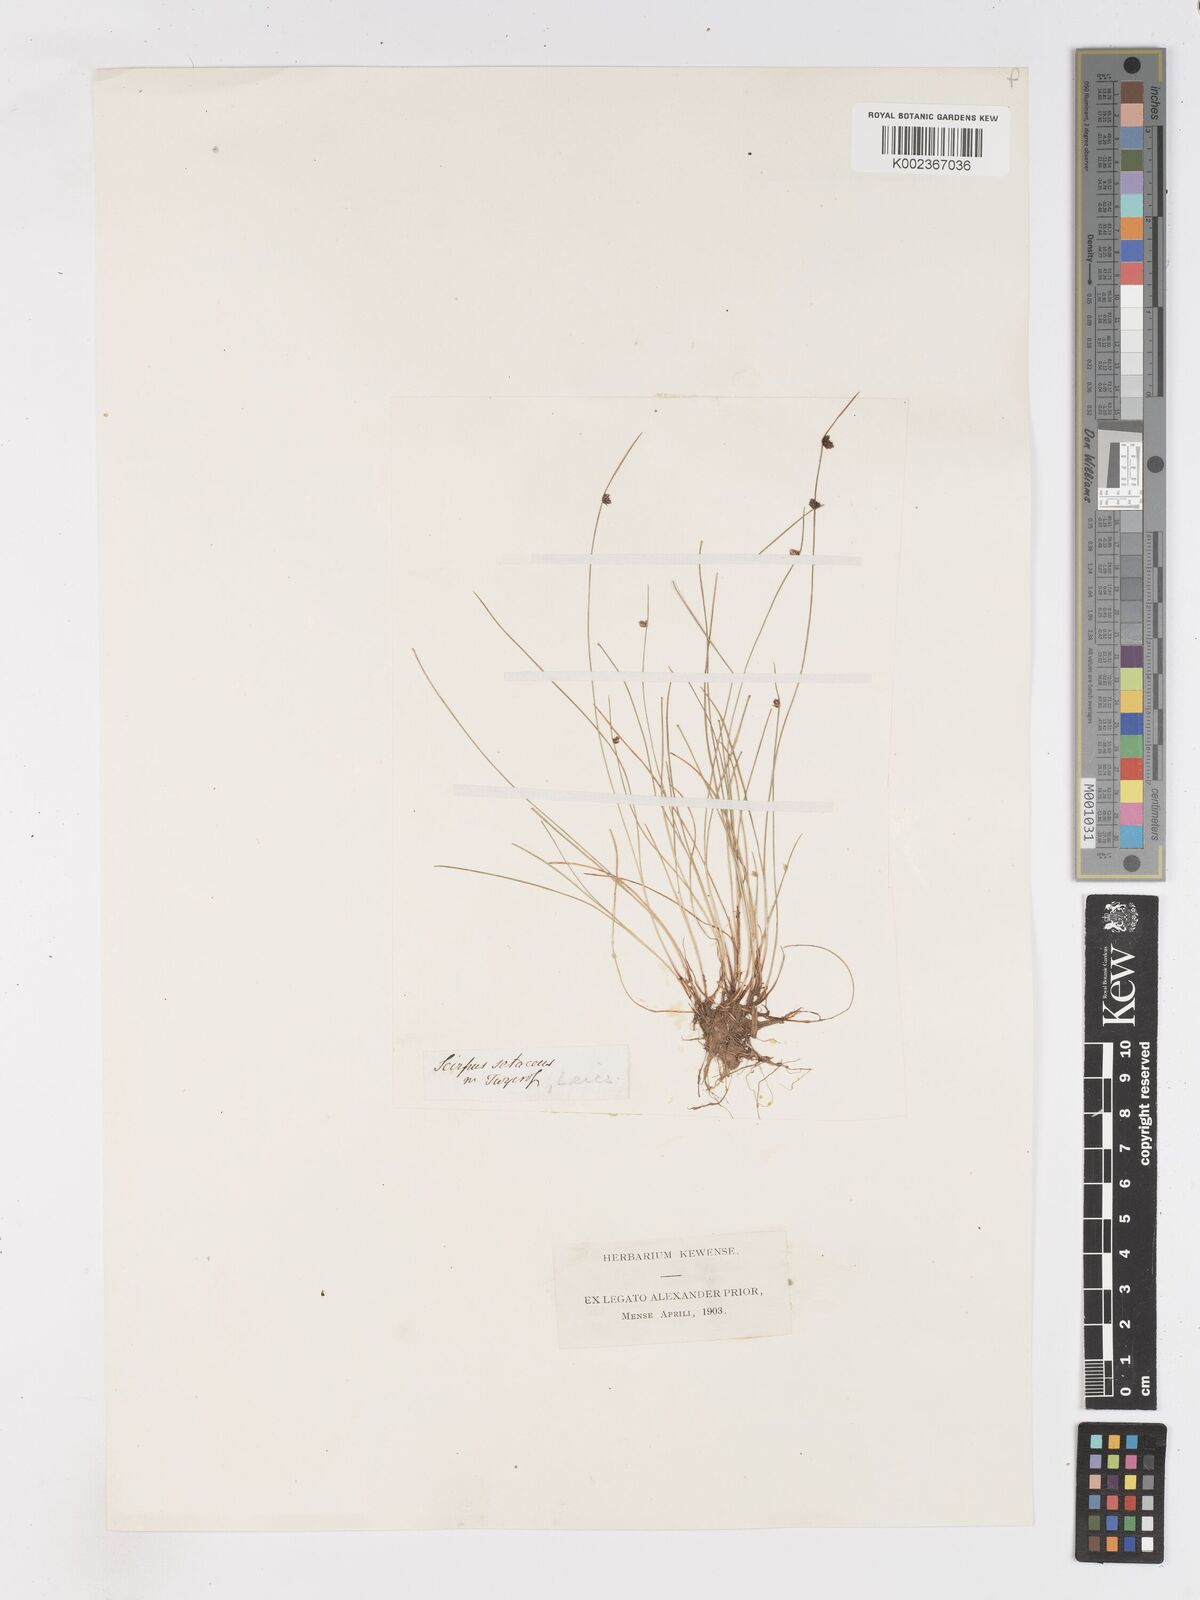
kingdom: Plantae
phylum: Tracheophyta
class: Liliopsida
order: Poales
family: Cyperaceae
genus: Isolepis
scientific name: Isolepis setacea
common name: Bristle club-rush
